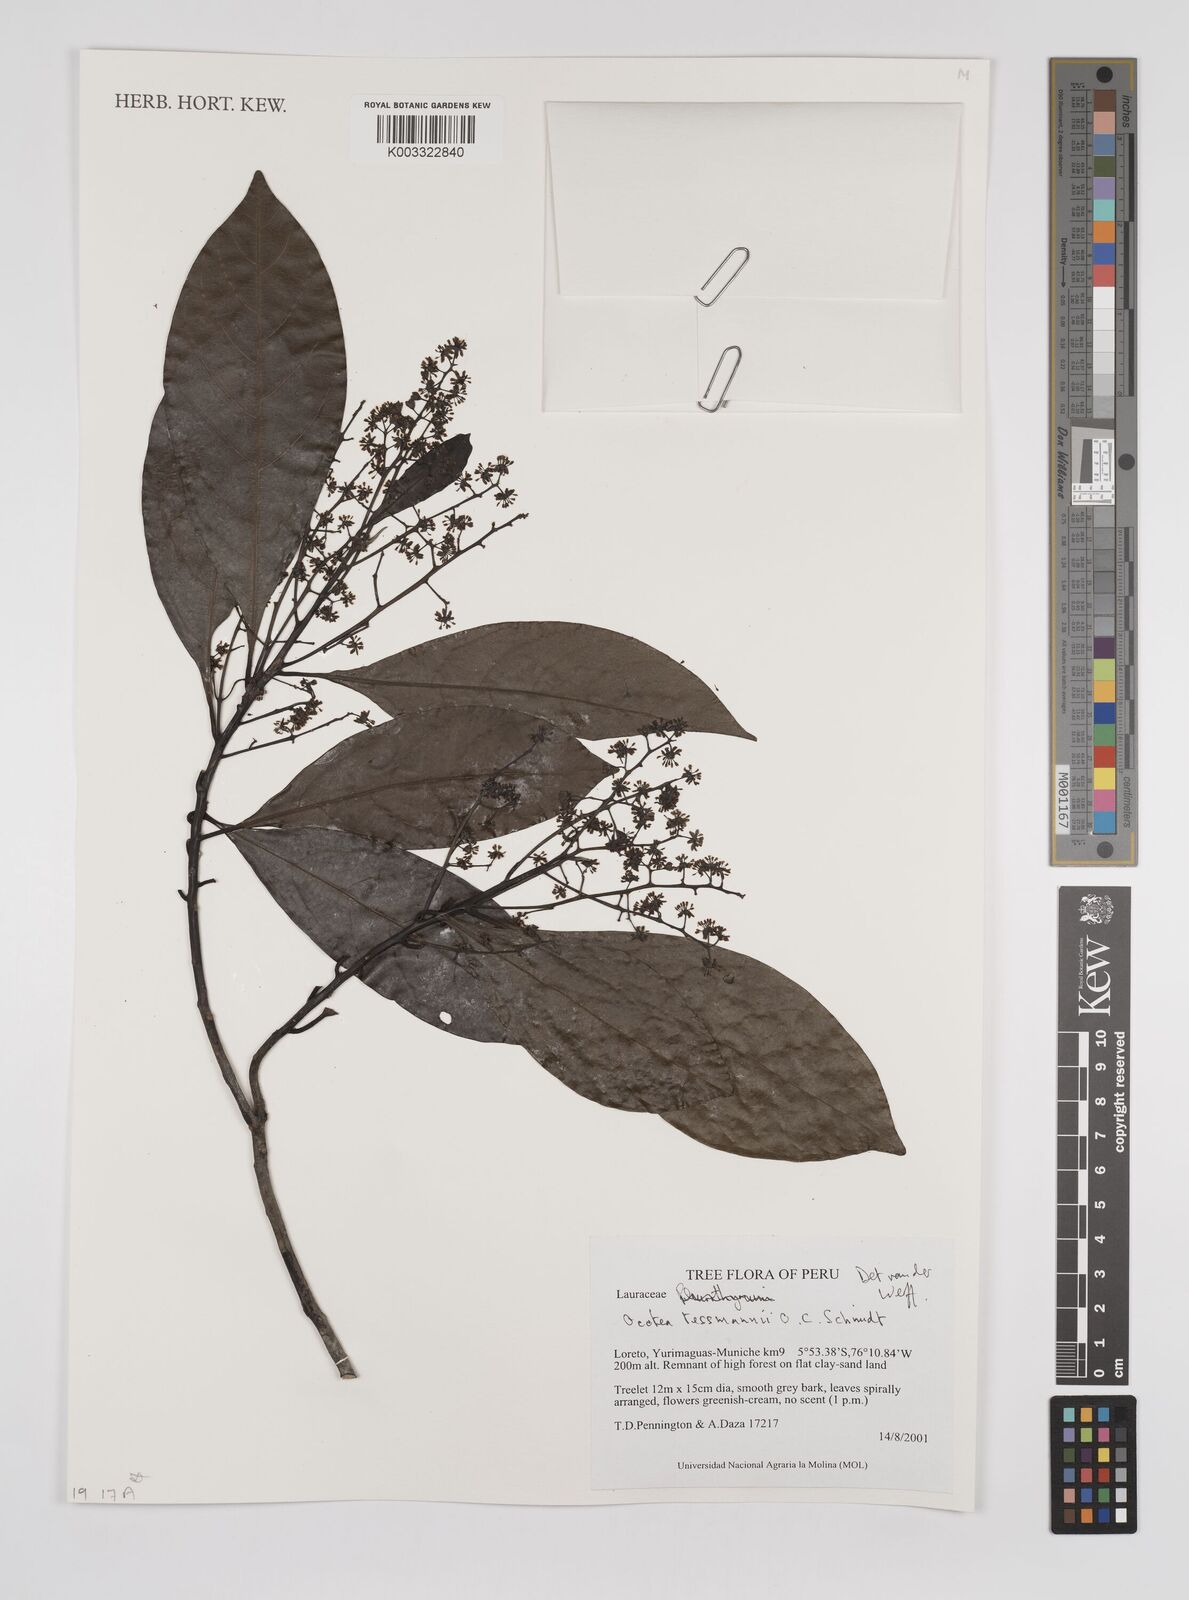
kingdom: Plantae
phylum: Tracheophyta
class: Magnoliopsida
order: Laurales
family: Lauraceae
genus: Ocotea
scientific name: Ocotea tessmannii
